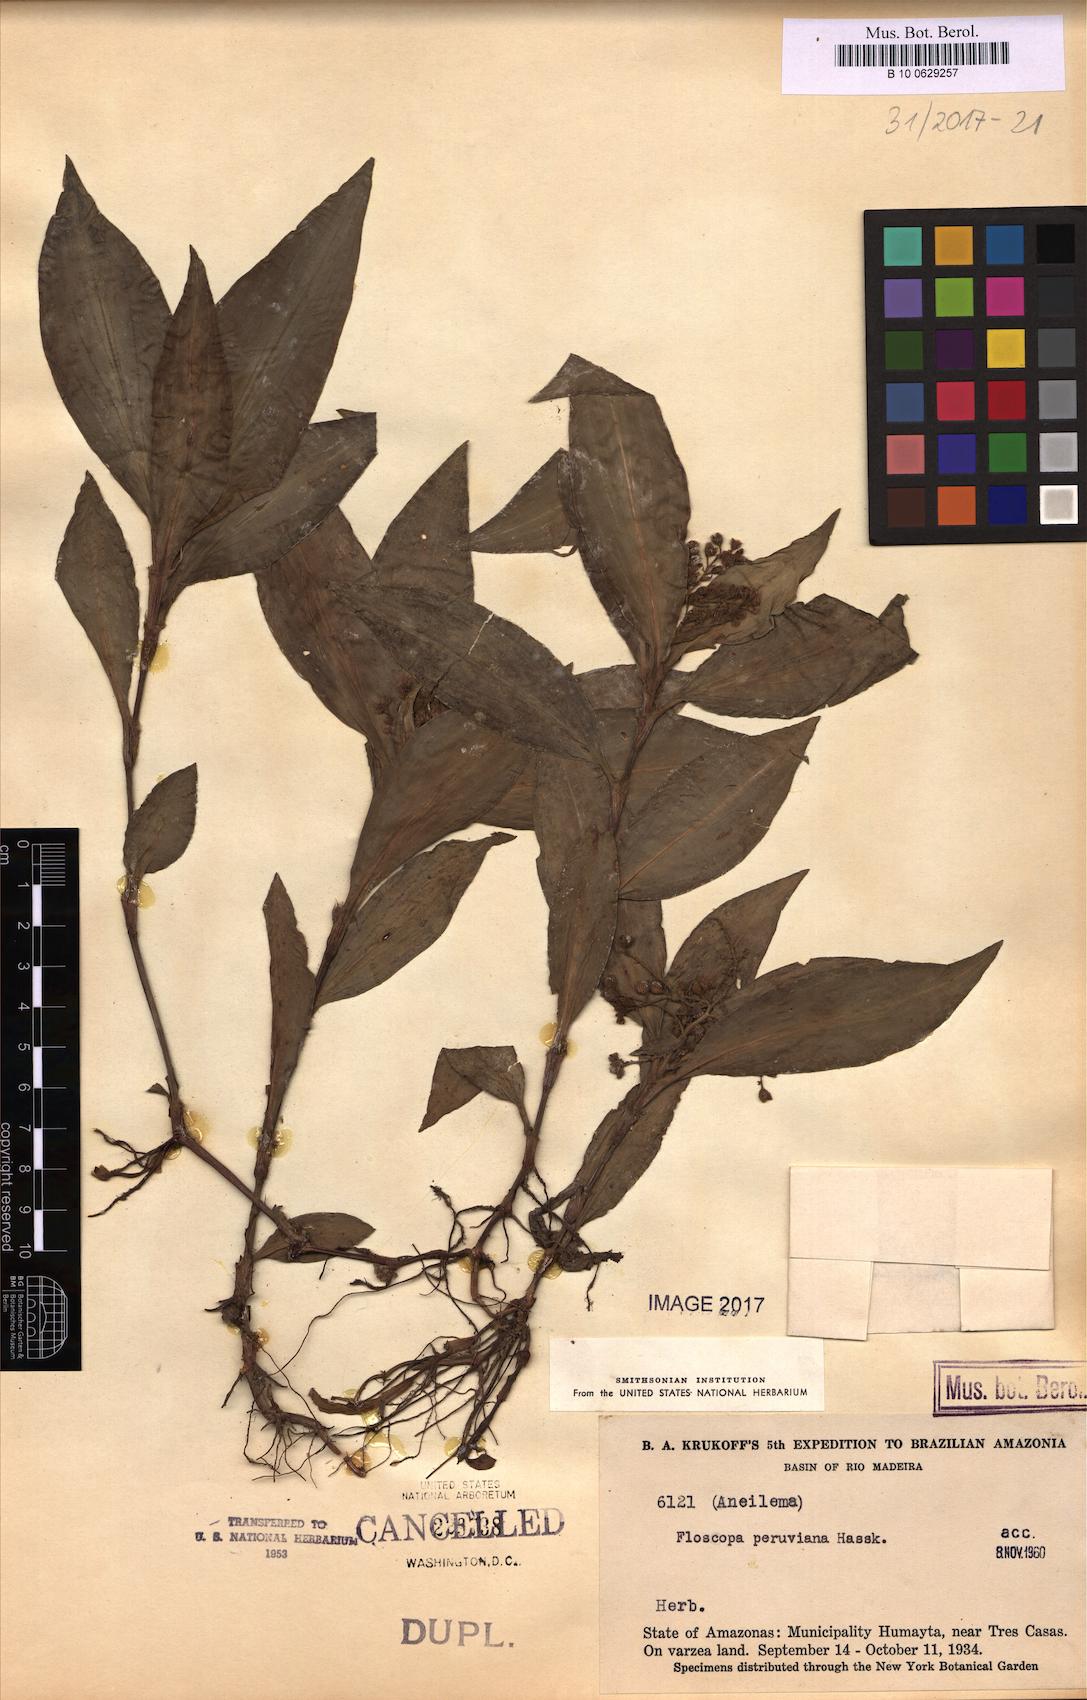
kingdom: Plantae
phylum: Tracheophyta
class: Liliopsida
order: Commelinales
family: Commelinaceae
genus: Floscopa
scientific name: Floscopa peruviana
